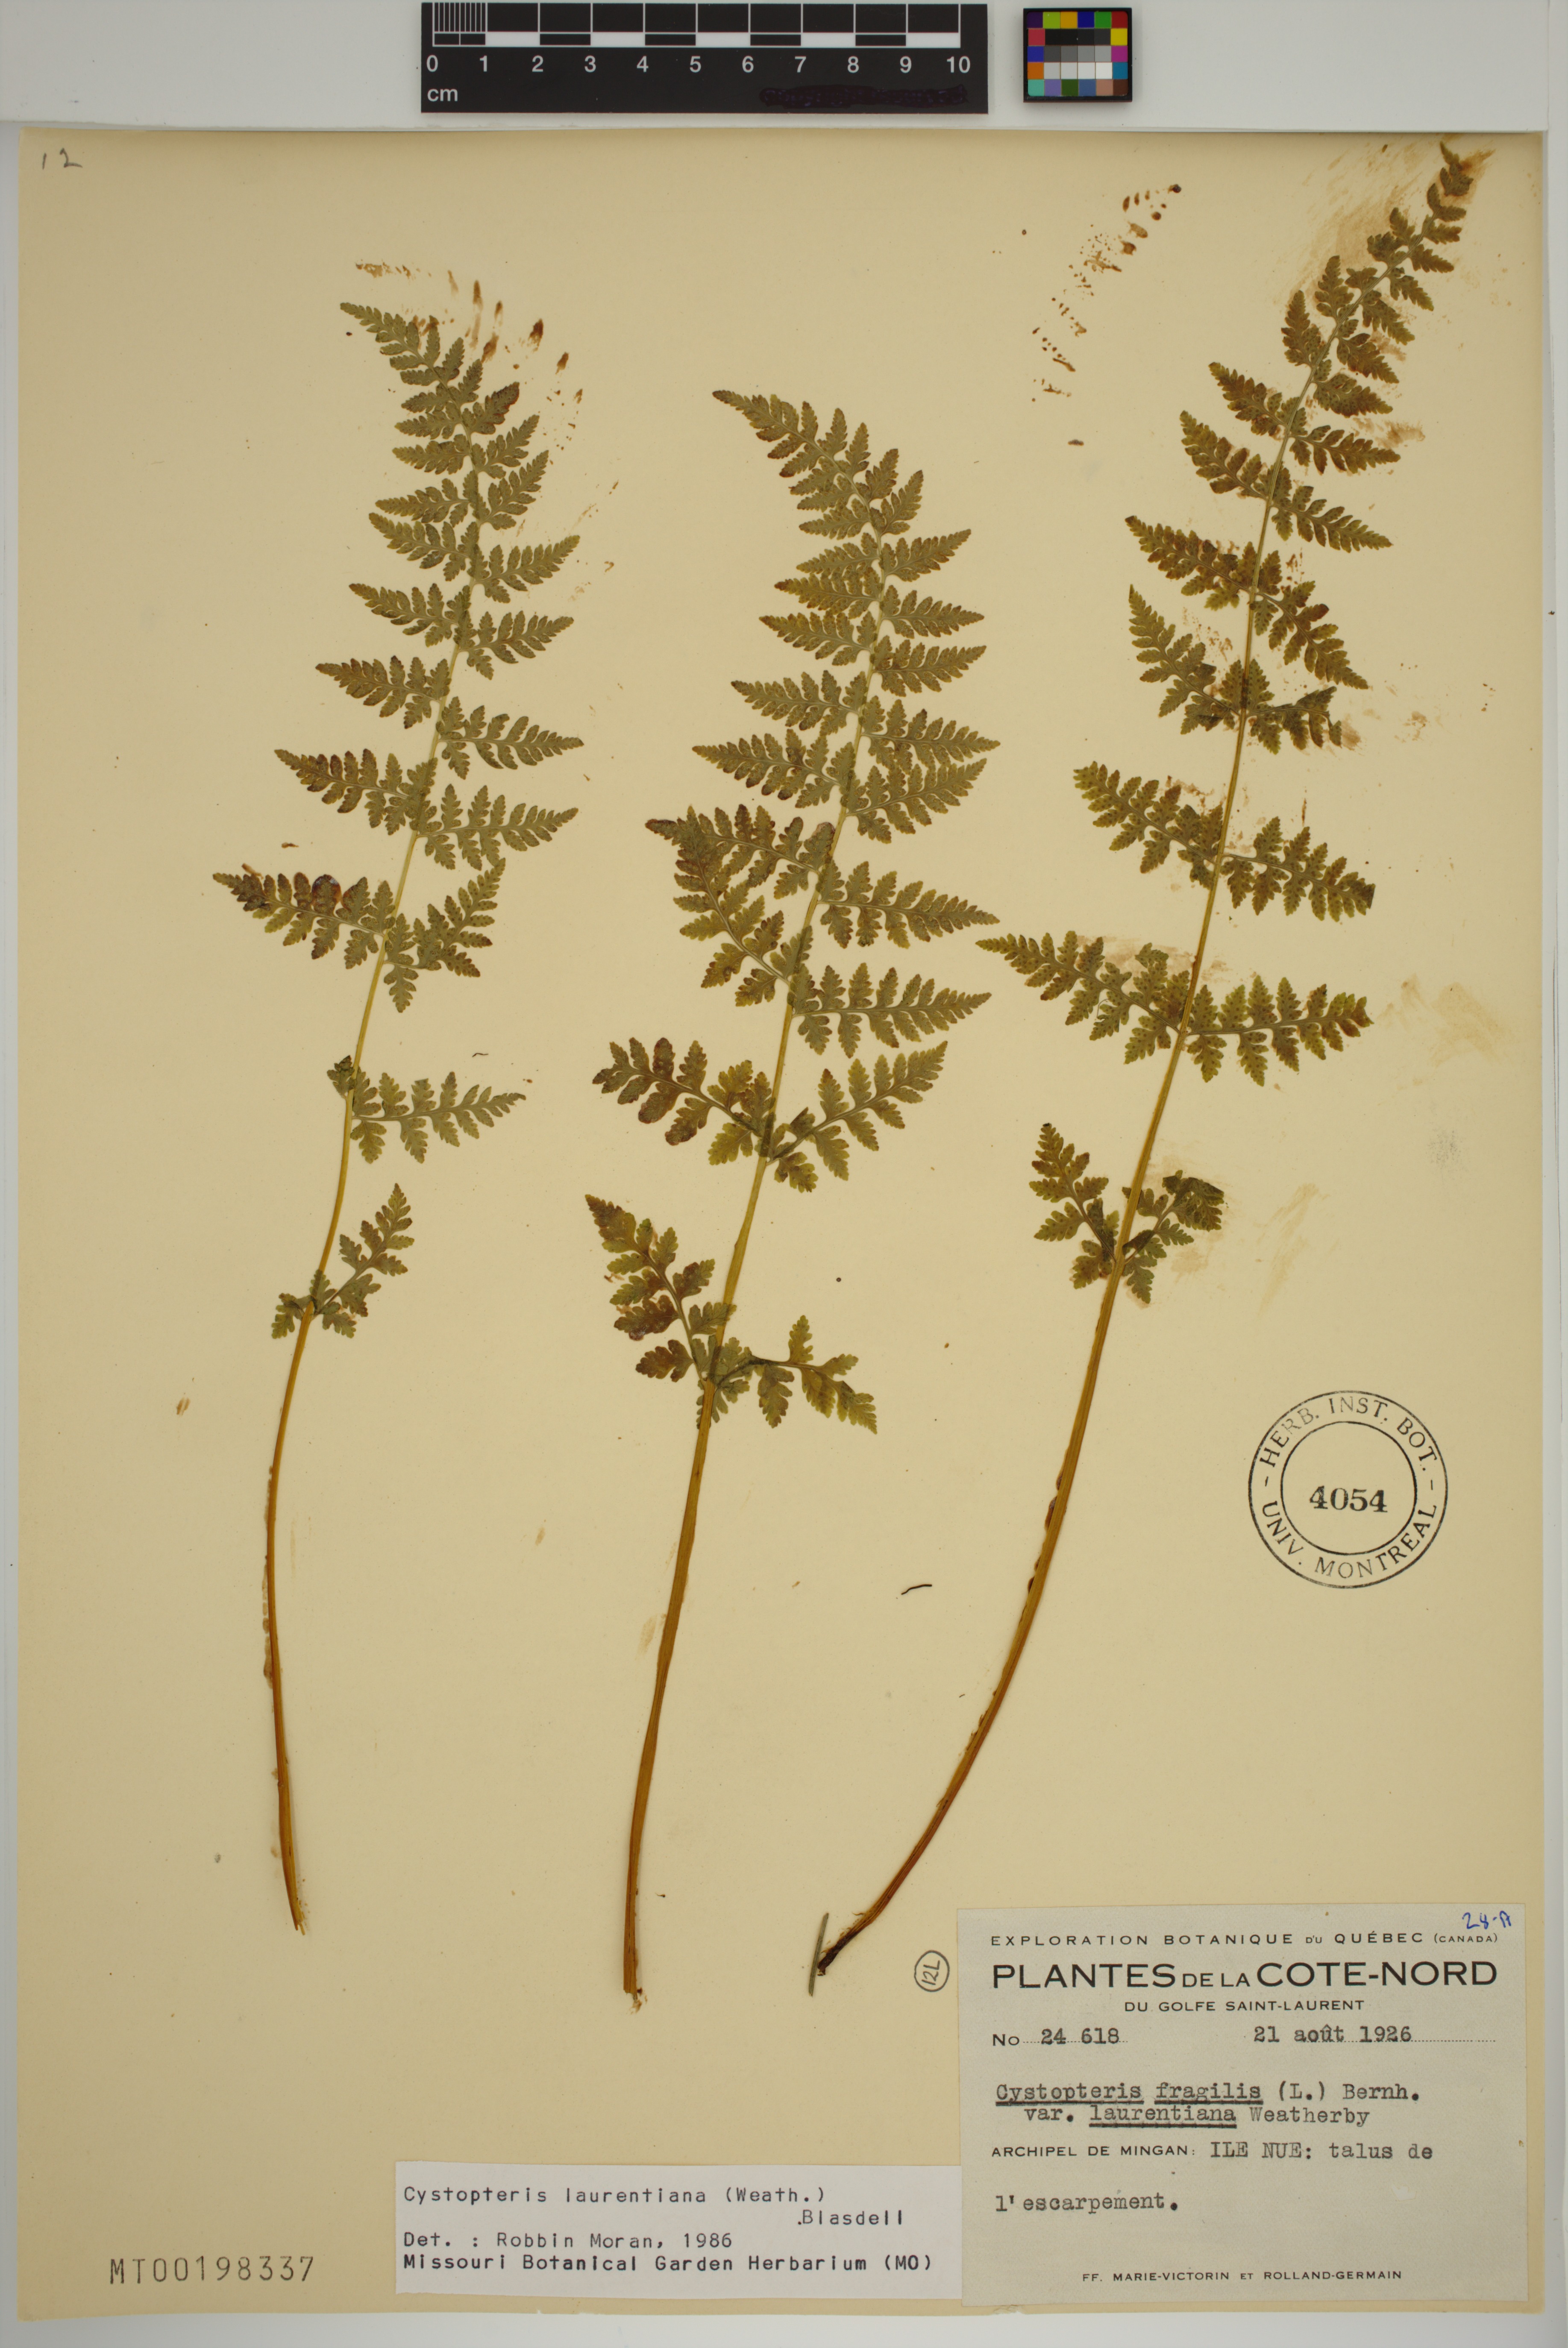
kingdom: Plantae
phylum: Tracheophyta
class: Polypodiopsida
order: Polypodiales
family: Cystopteridaceae
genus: Cystopteris
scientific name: Cystopteris laurentiana
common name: Blasdell's laurentian bladder fern
